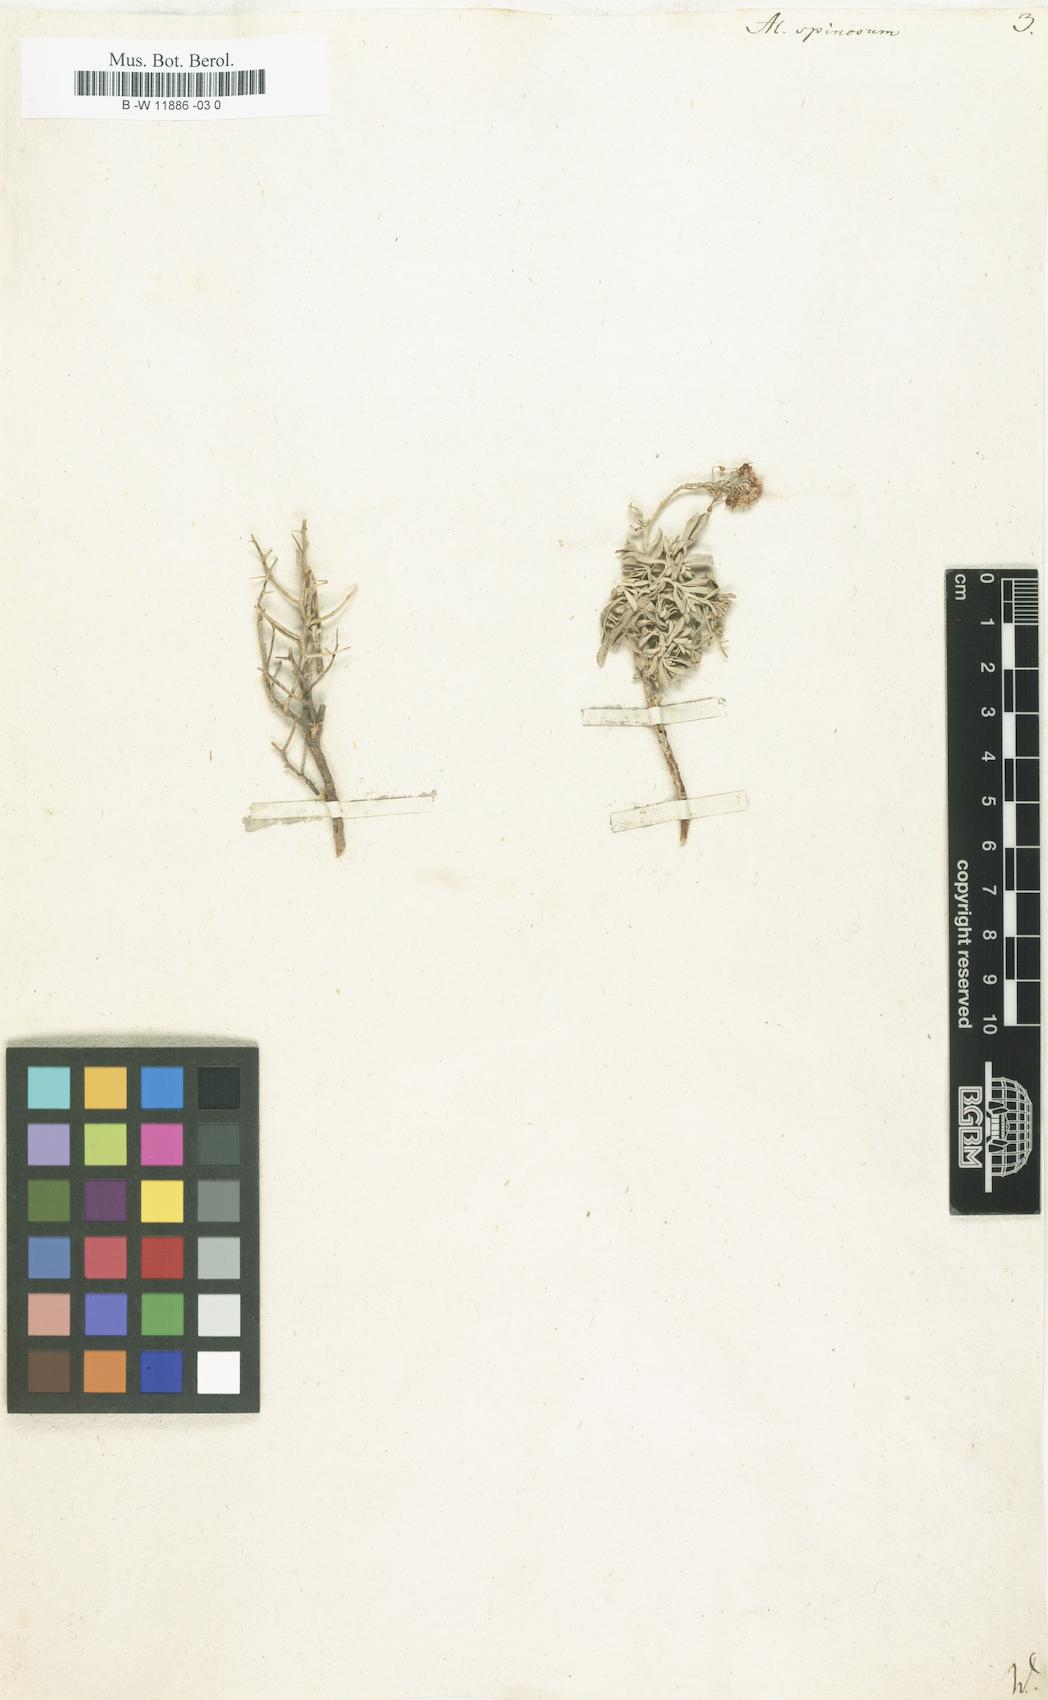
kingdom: Plantae
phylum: Tracheophyta
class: Magnoliopsida
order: Brassicales
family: Brassicaceae
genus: Hormathophylla
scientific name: Hormathophylla spinosa
